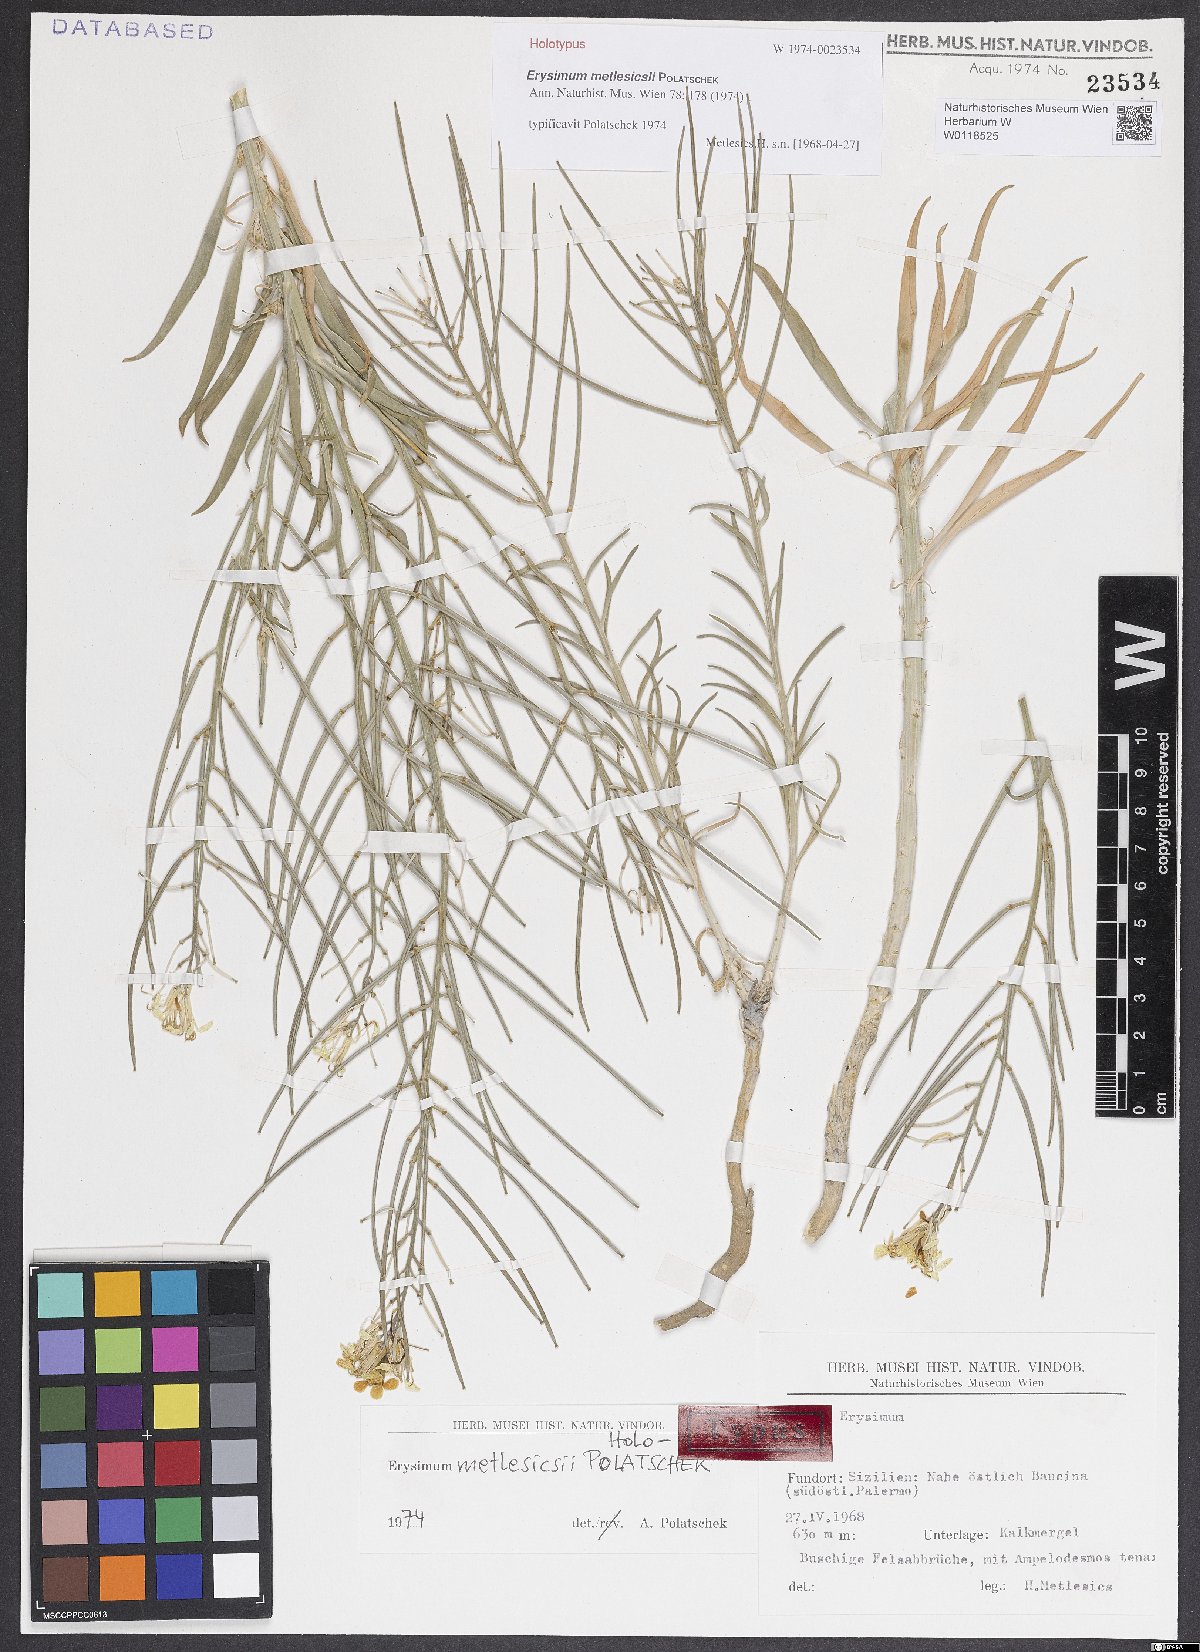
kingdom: Plantae
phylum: Tracheophyta
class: Magnoliopsida
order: Brassicales
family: Brassicaceae
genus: Erysimum
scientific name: Erysimum metlesicsii
